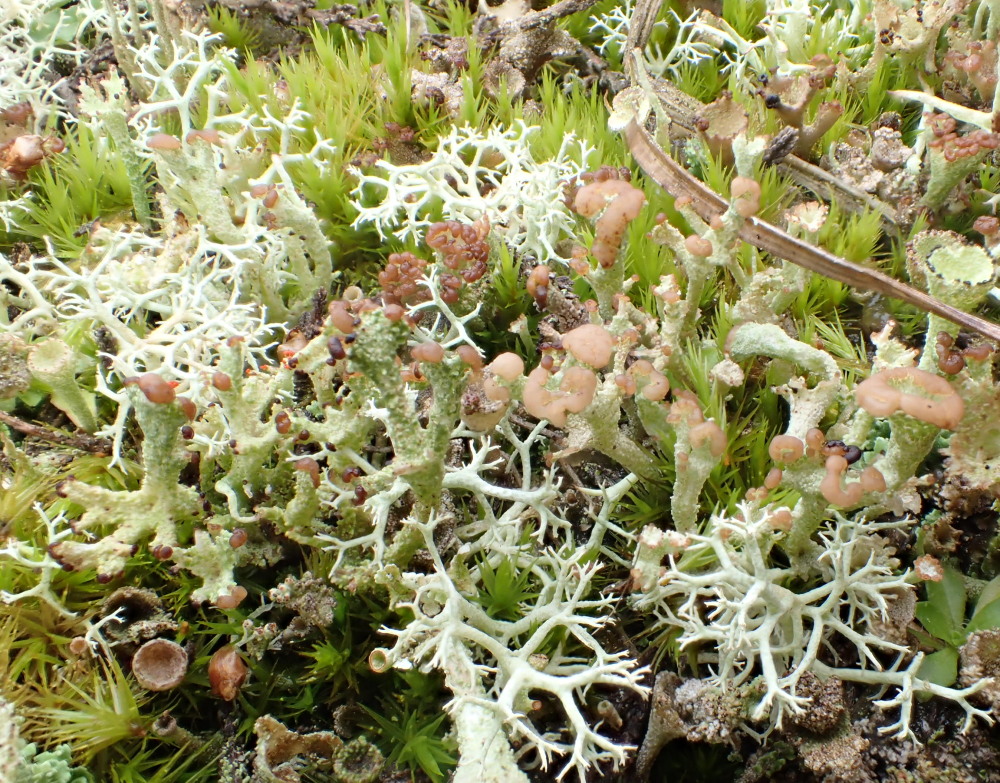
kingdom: Fungi
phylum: Ascomycota
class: Lecanoromycetes
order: Lecanorales
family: Cladoniaceae
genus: Cladonia
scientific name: Cladonia portentosa
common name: hede-rensdyrlav
